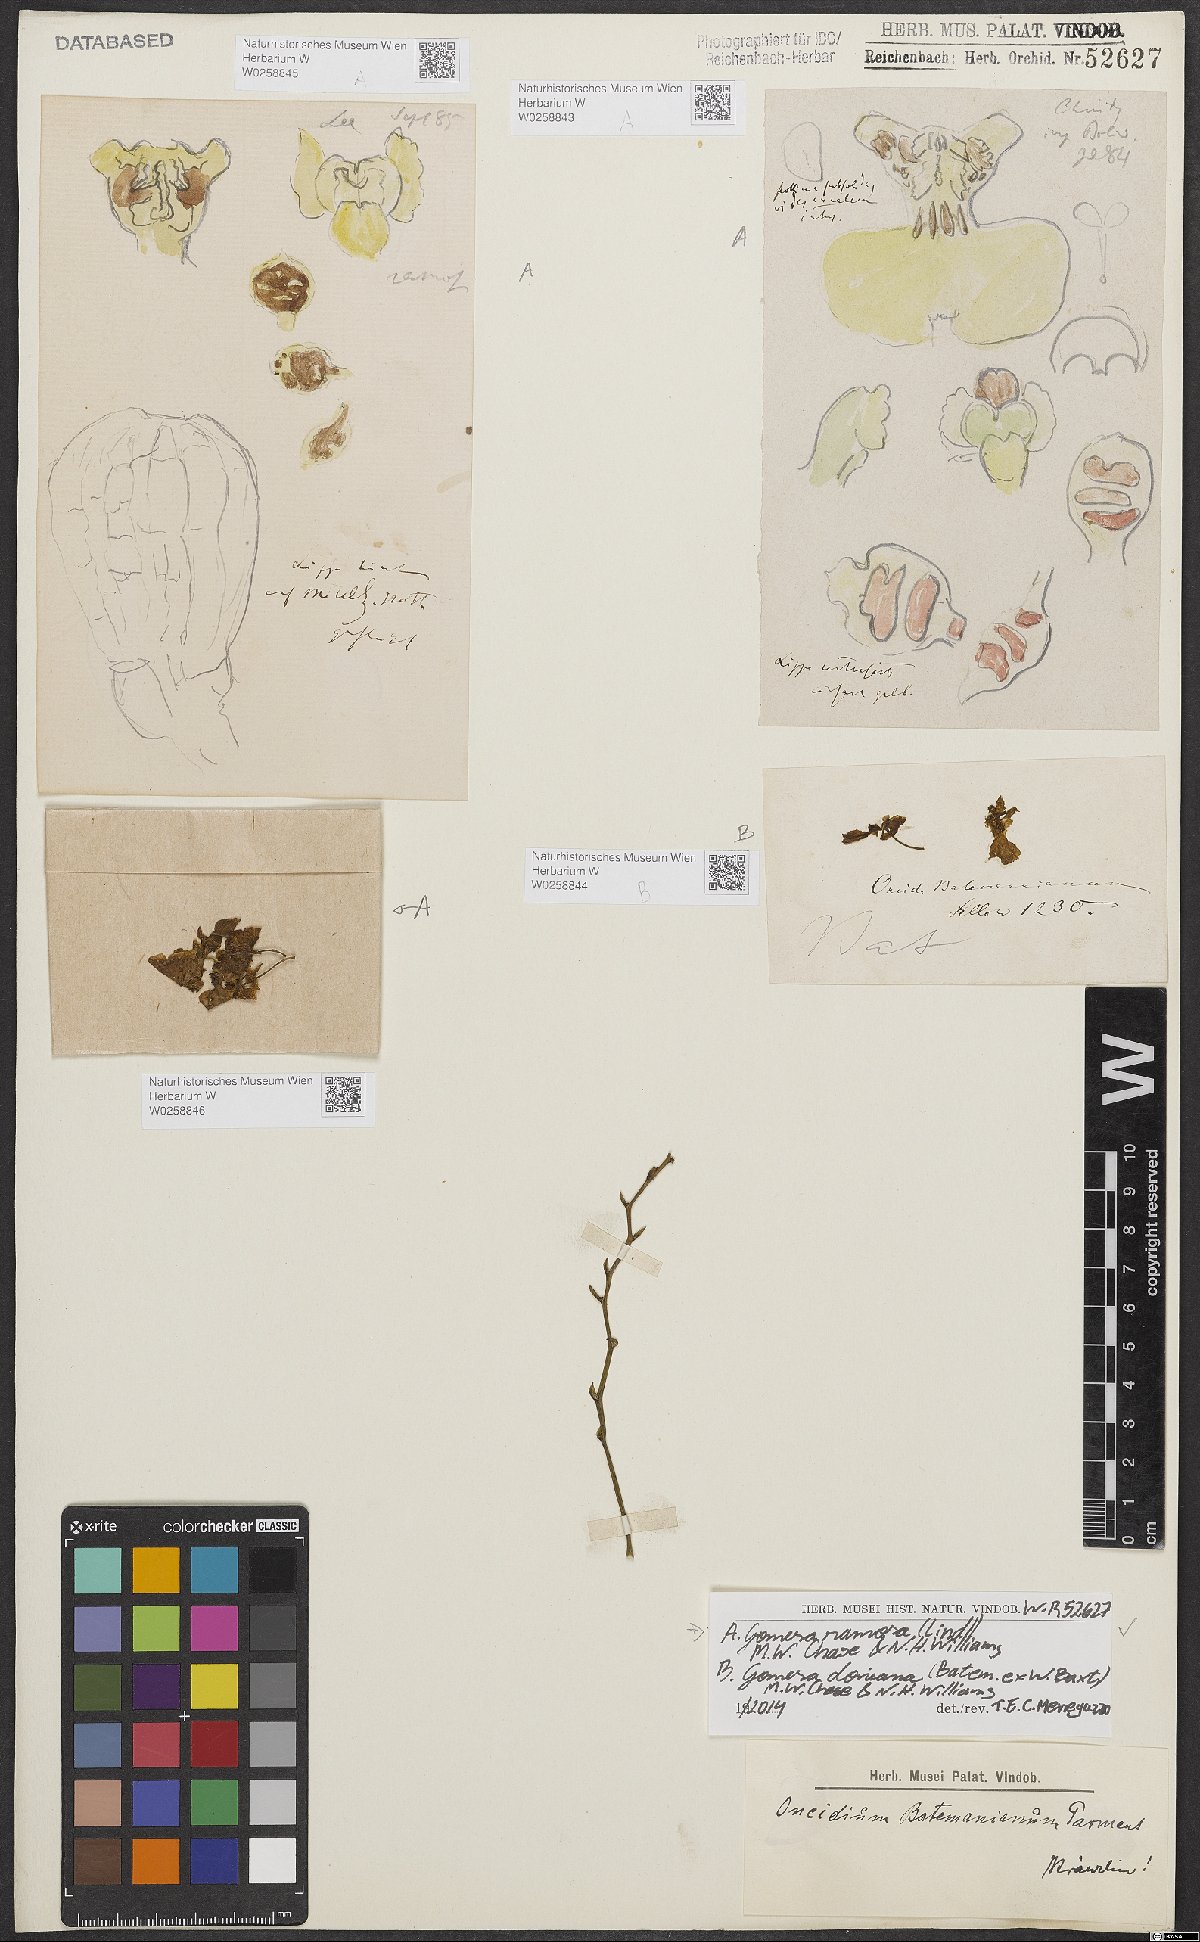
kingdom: Plantae
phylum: Tracheophyta
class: Liliopsida
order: Asparagales
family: Orchidaceae
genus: Gomesa
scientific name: Gomesa ramosa
